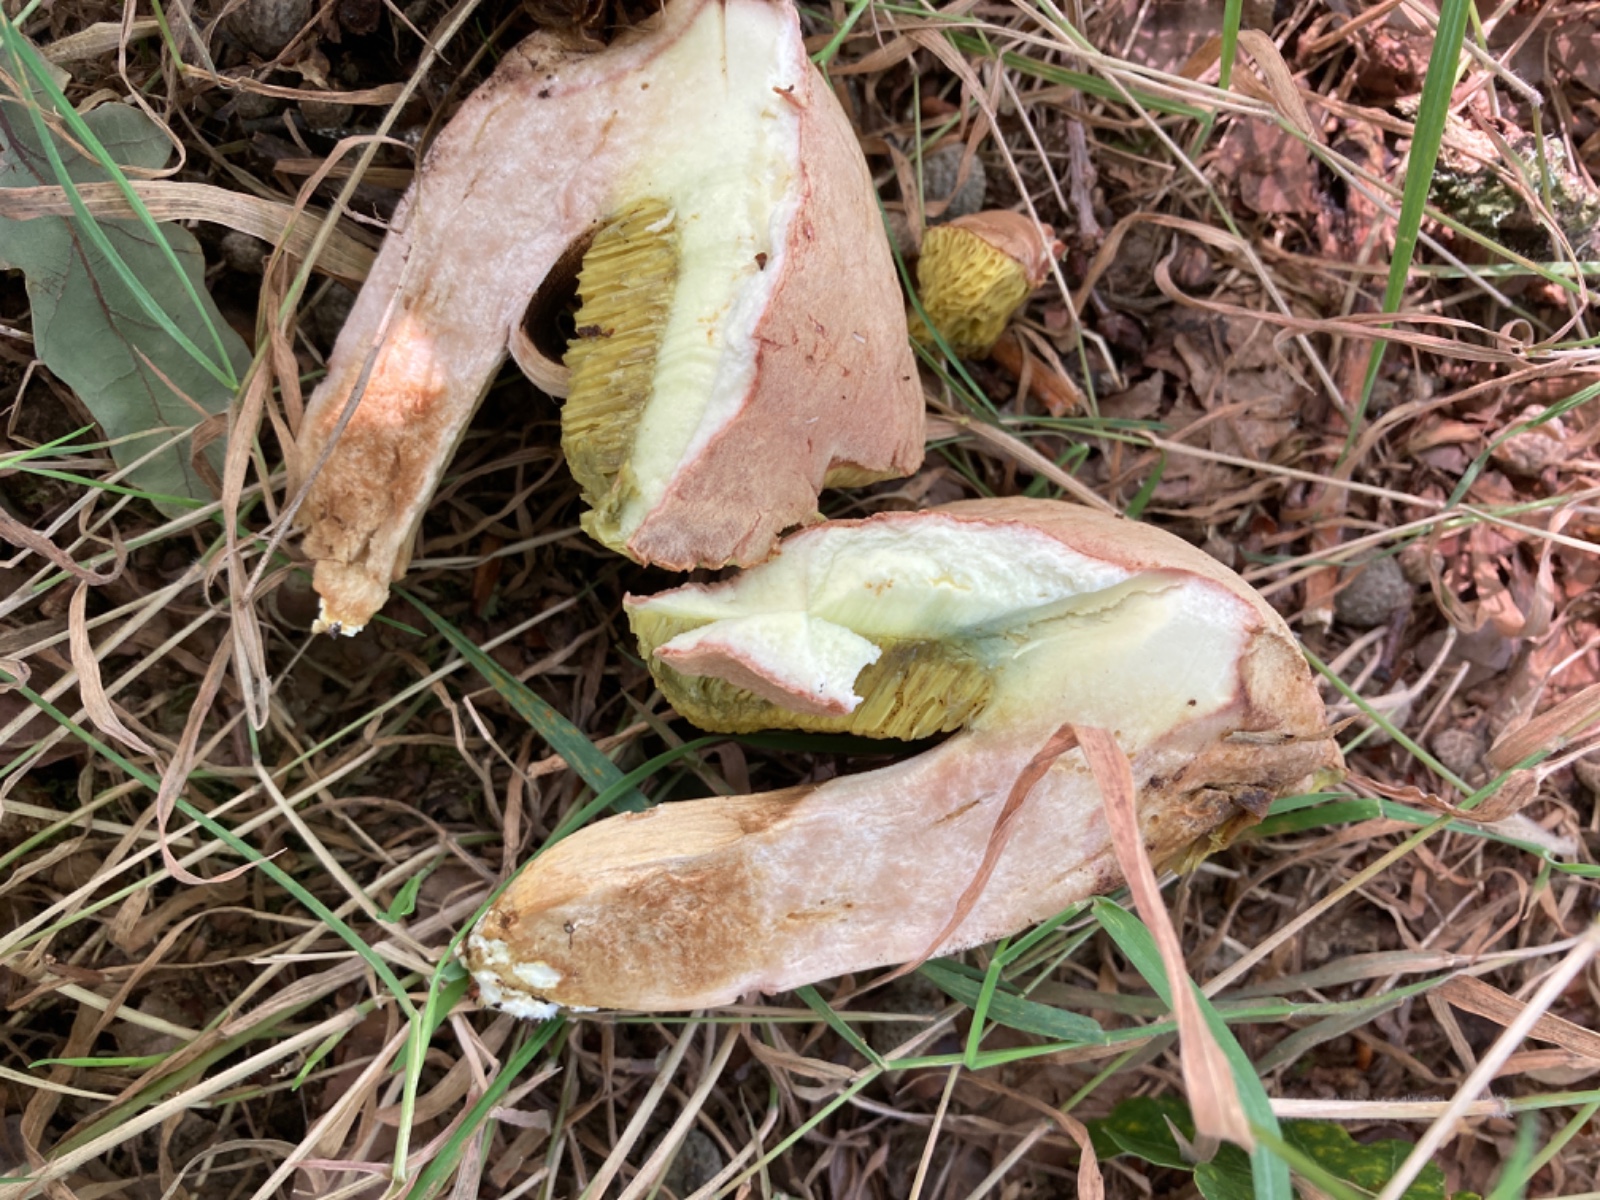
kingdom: Fungi
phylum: Basidiomycota
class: Agaricomycetes
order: Boletales
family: Boletaceae
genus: Xerocomus
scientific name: Xerocomus subtomentosus
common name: filtet rørhat
